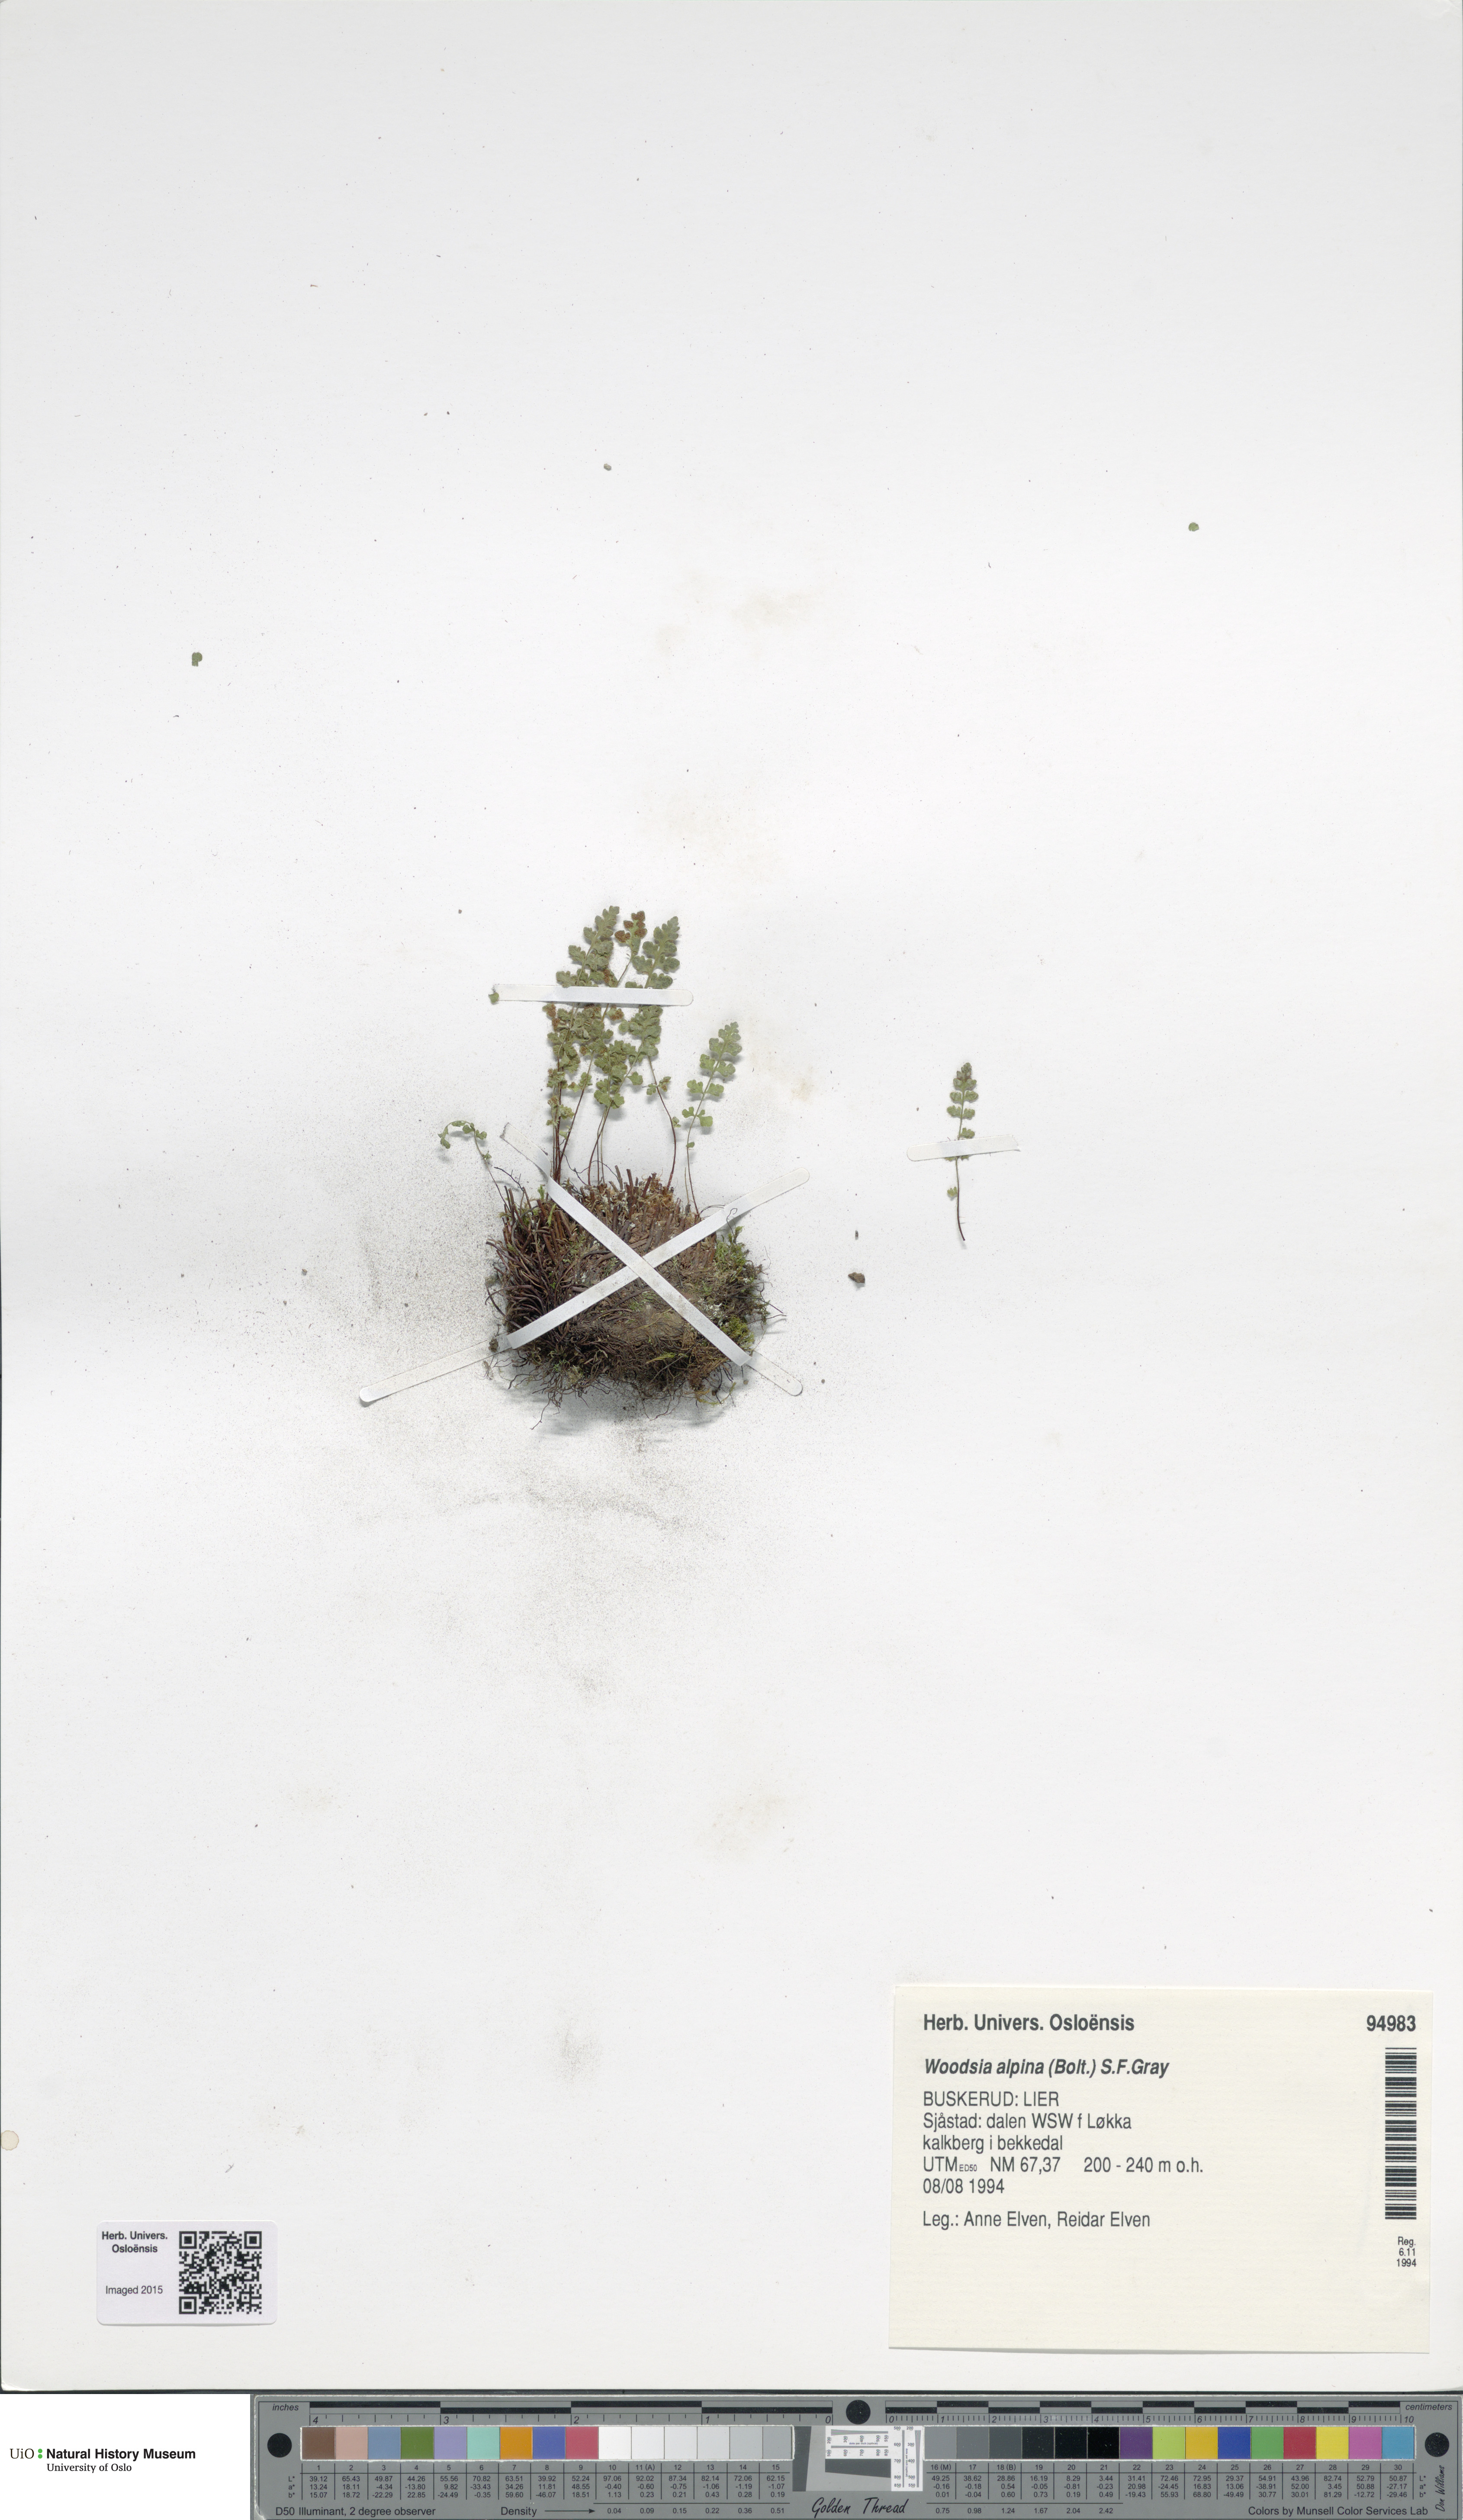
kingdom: Plantae
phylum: Tracheophyta
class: Polypodiopsida
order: Polypodiales
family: Woodsiaceae
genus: Woodsia
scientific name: Woodsia alpina
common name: Alpine woodsia
